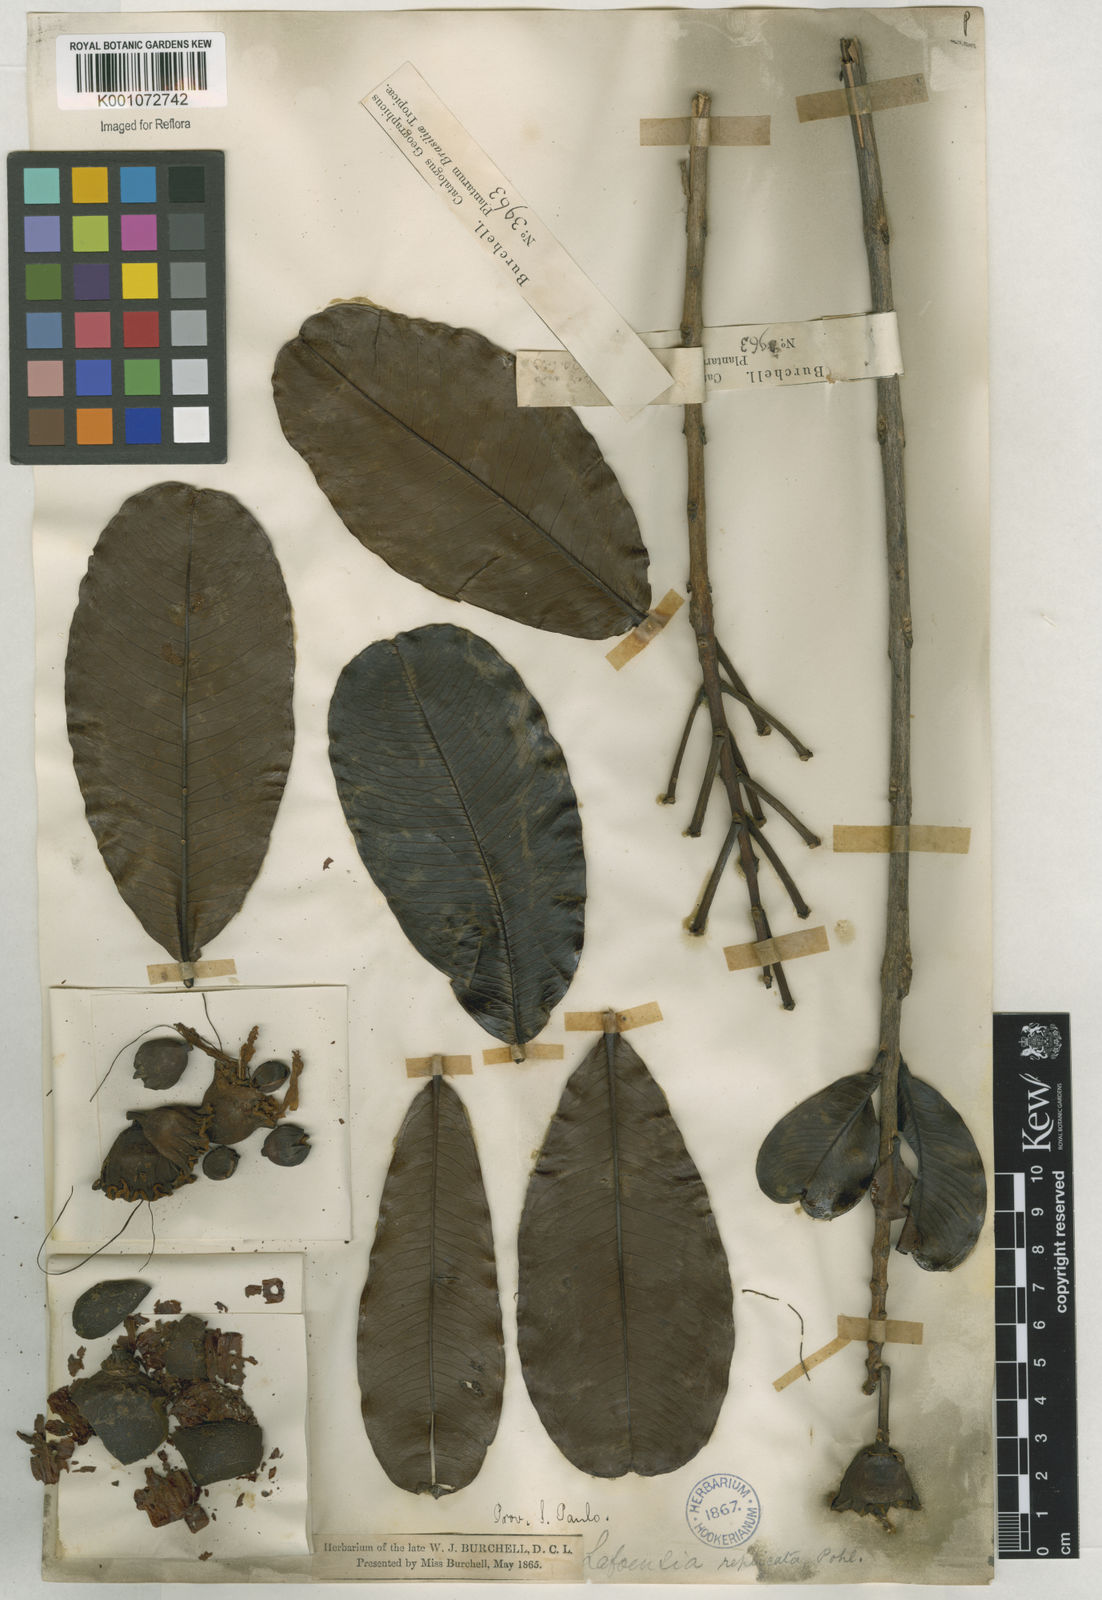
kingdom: Plantae
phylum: Tracheophyta
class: Magnoliopsida
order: Myrtales
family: Lythraceae
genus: Lafoensia
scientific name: Lafoensia vandelliana
